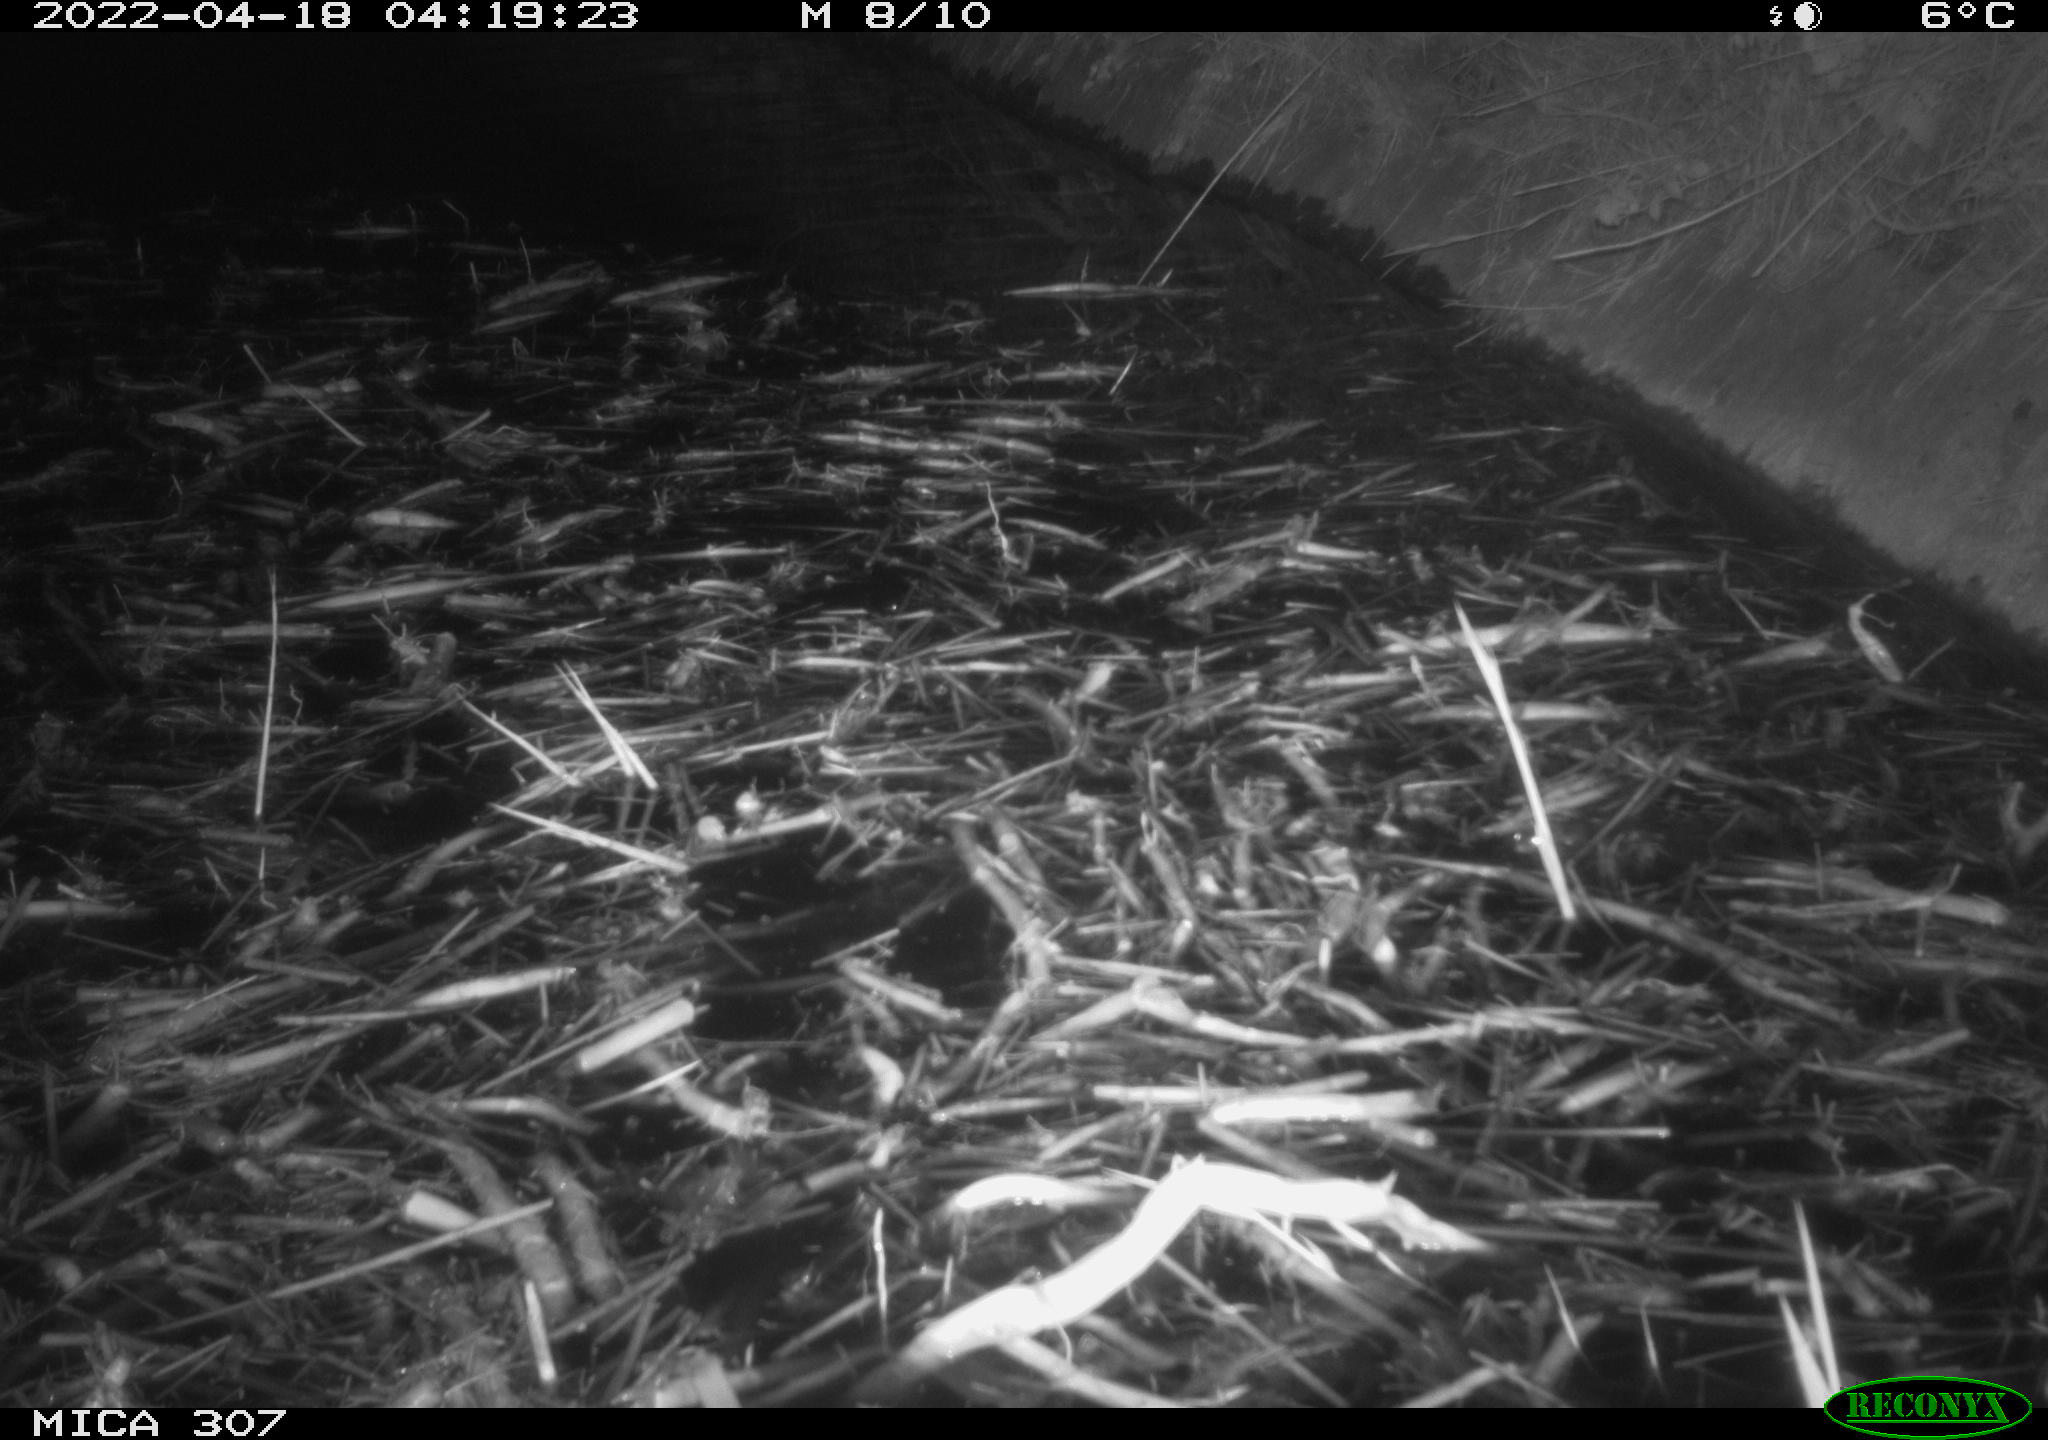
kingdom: Animalia
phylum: Chordata
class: Aves
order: Anseriformes
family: Anatidae
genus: Anas
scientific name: Anas platyrhynchos
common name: Mallard
